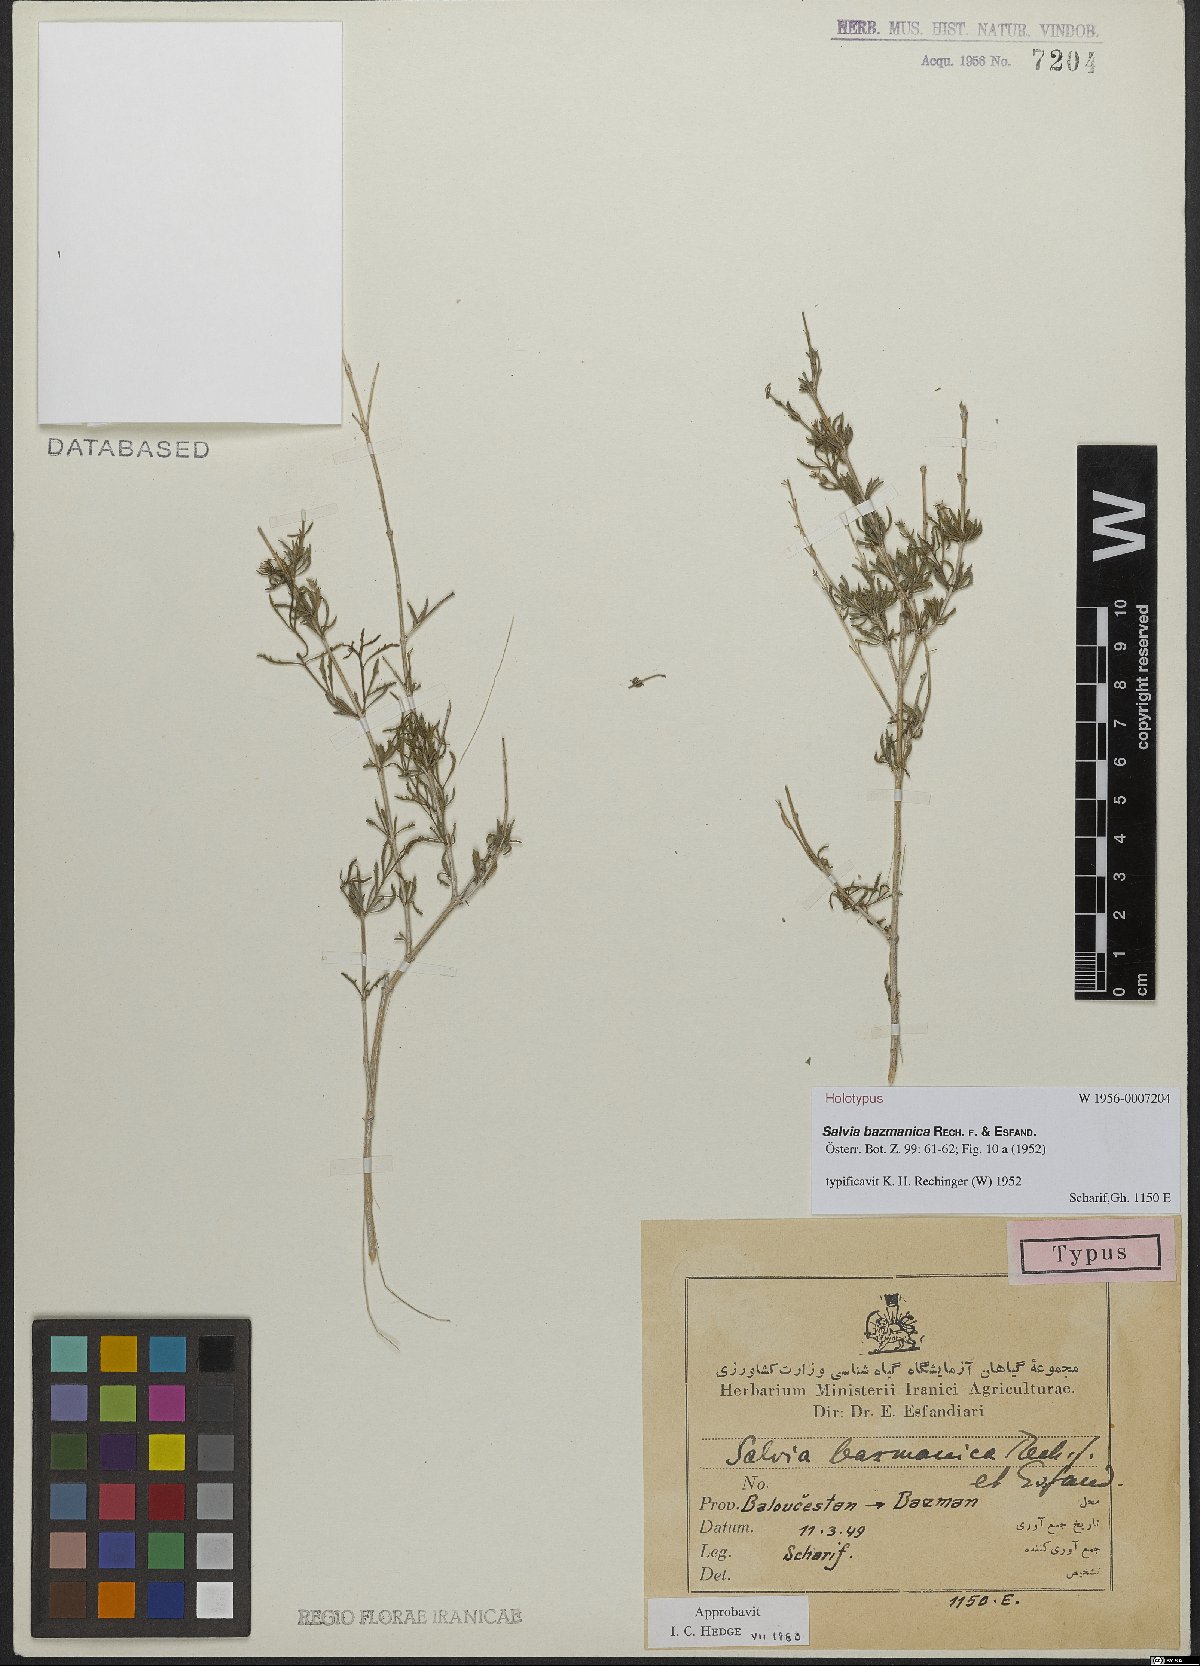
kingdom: Plantae
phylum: Tracheophyta
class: Magnoliopsida
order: Lamiales
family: Lamiaceae
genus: Salvia
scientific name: Salvia bazmanica
